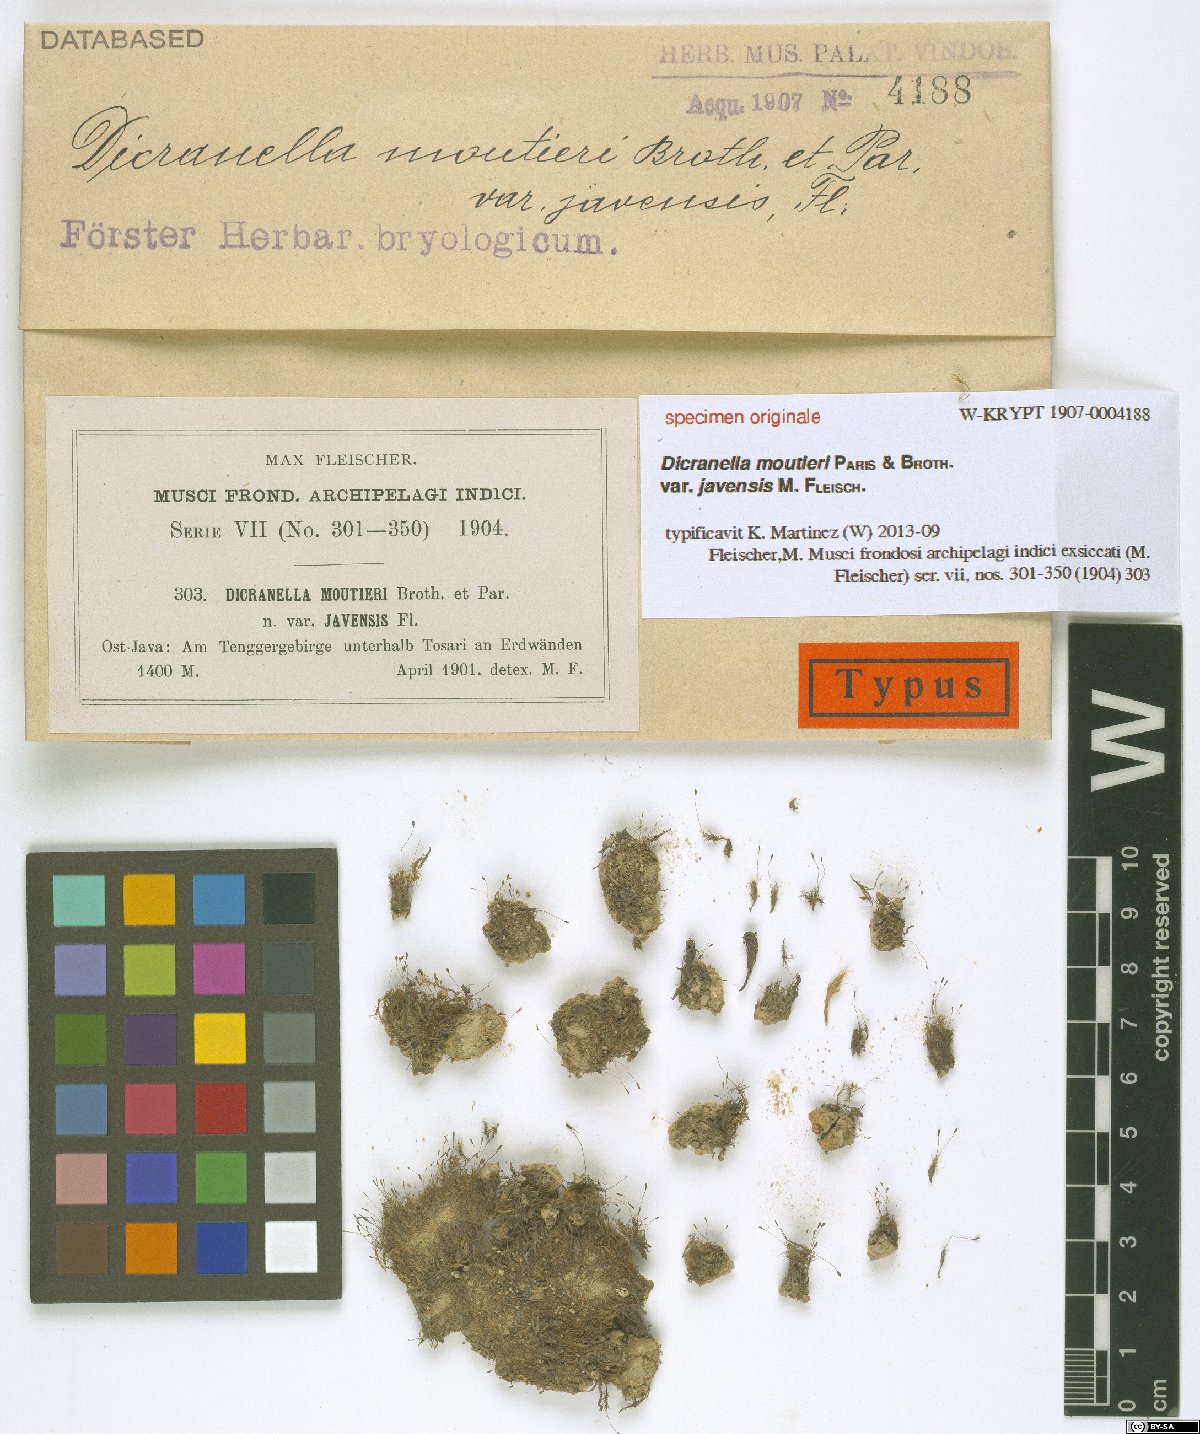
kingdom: Plantae
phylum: Bryophyta
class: Bryopsida
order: Dicranales
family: Dicranellaceae
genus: Dicranella
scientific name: Dicranella coarctata
